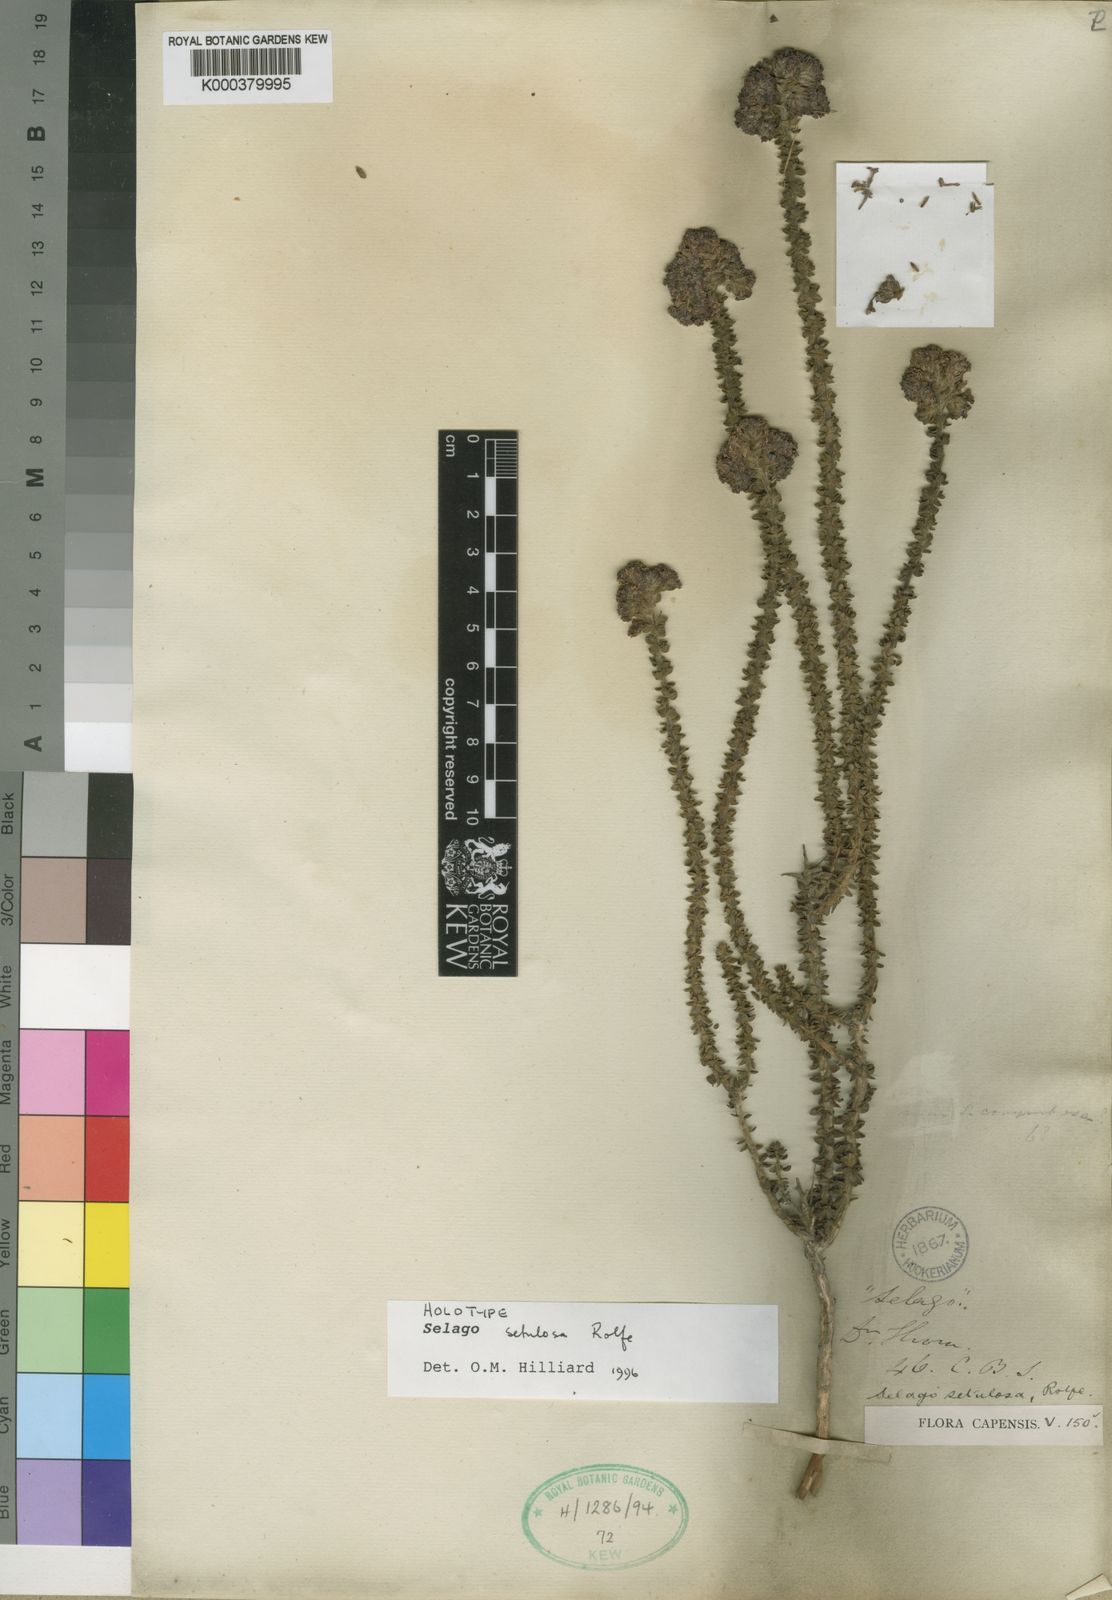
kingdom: Plantae
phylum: Tracheophyta
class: Magnoliopsida
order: Lamiales
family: Scrophulariaceae
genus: Selago
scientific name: Selago setulosa
